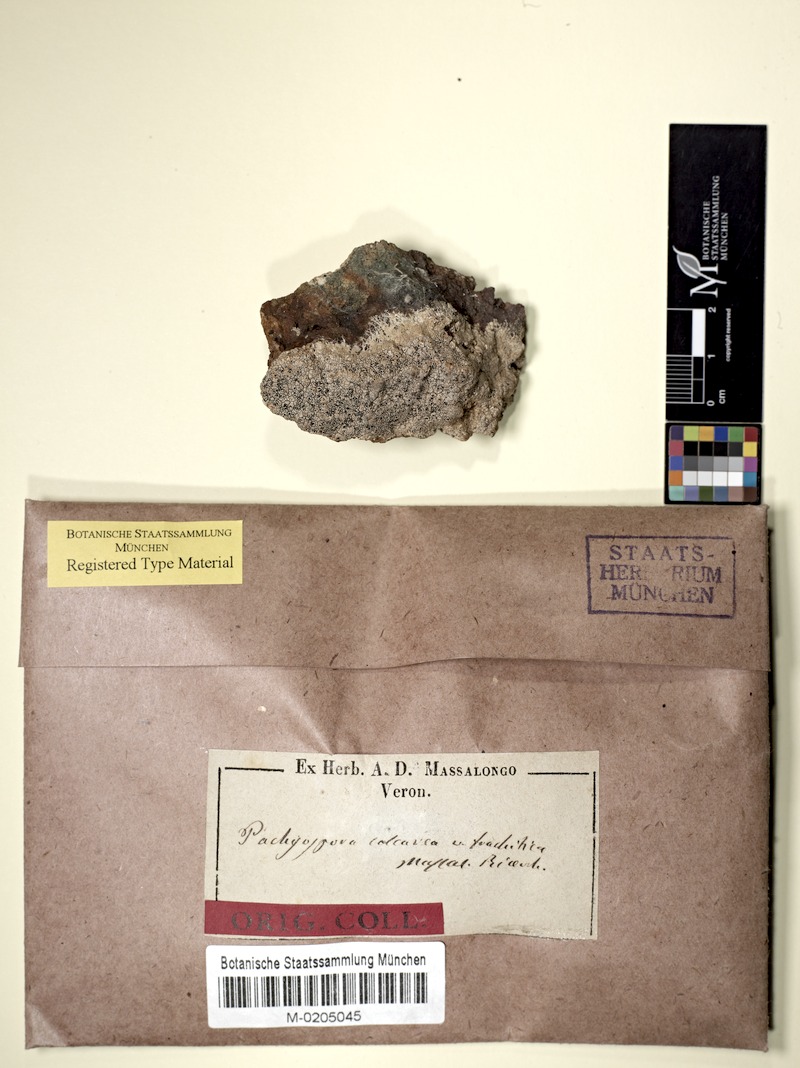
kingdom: Fungi
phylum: Ascomycota
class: Lecanoromycetes
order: Pertusariales
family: Megasporaceae
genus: Aspicilia
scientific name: Aspicilia trachytica
